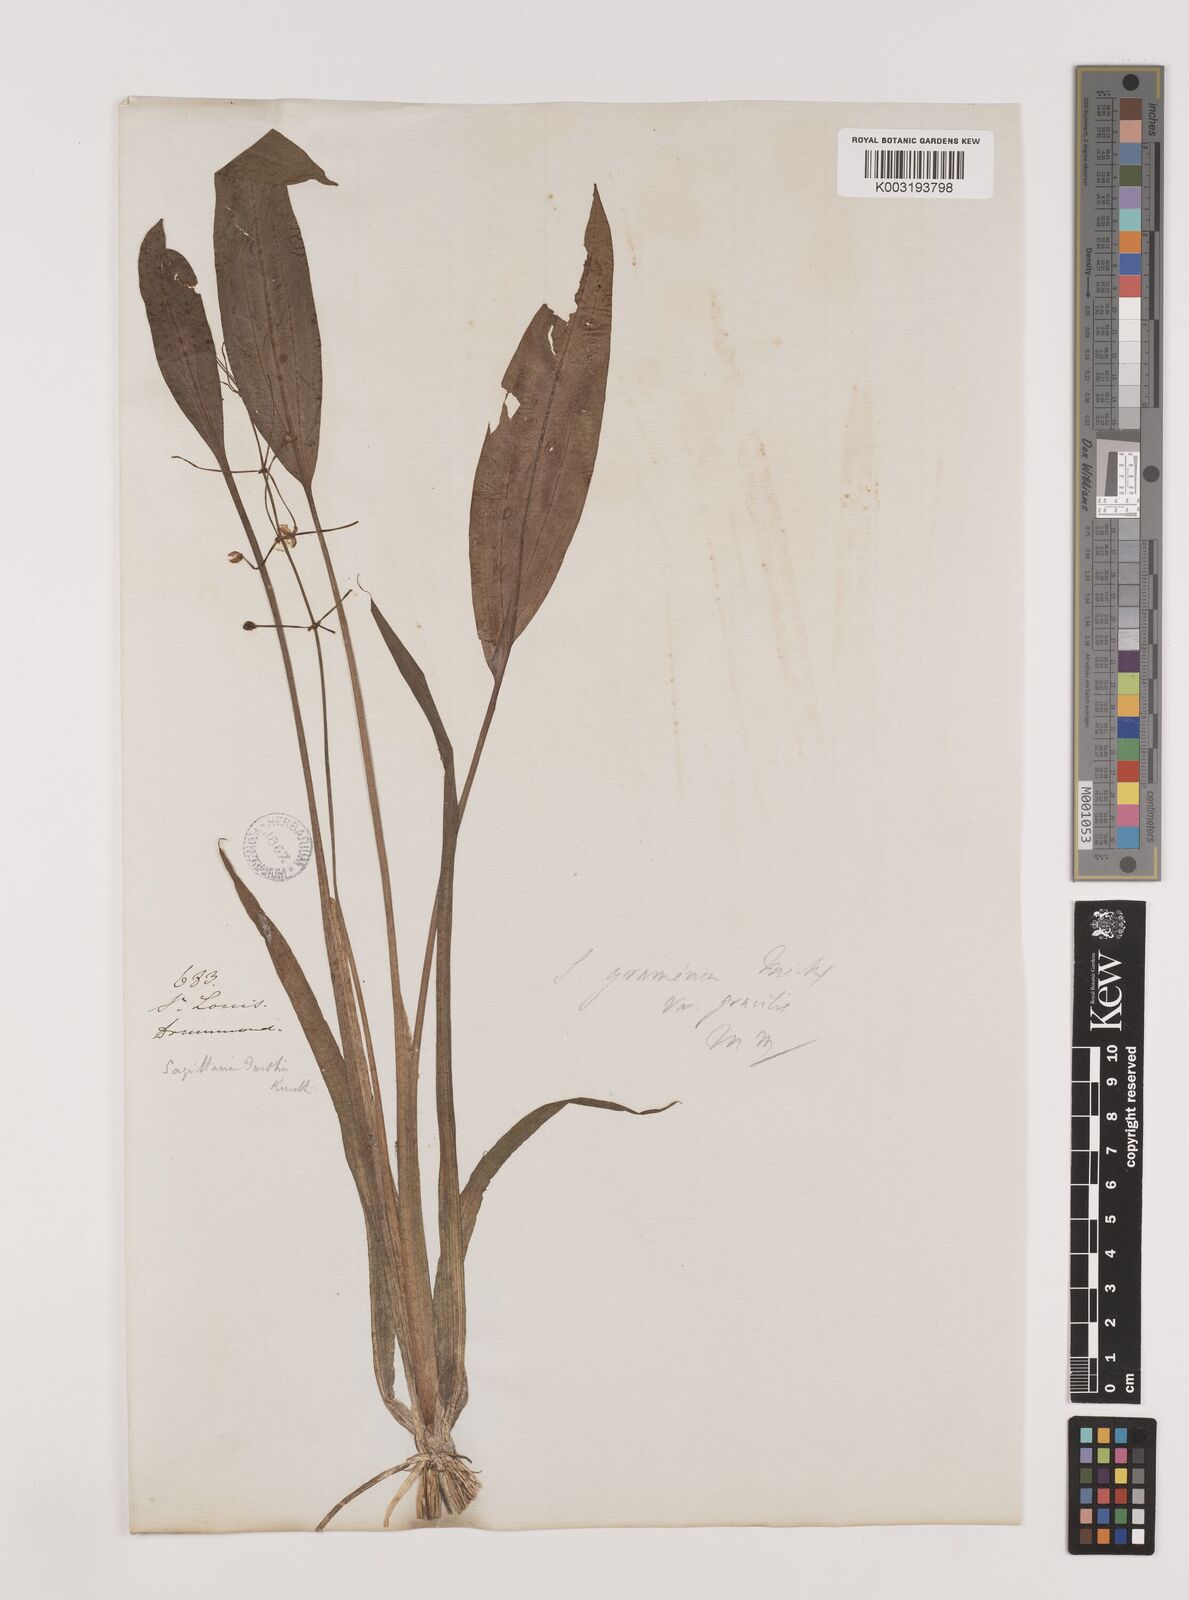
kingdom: Plantae
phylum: Tracheophyta
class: Liliopsida
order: Alismatales
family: Alismataceae
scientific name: Alismataceae
